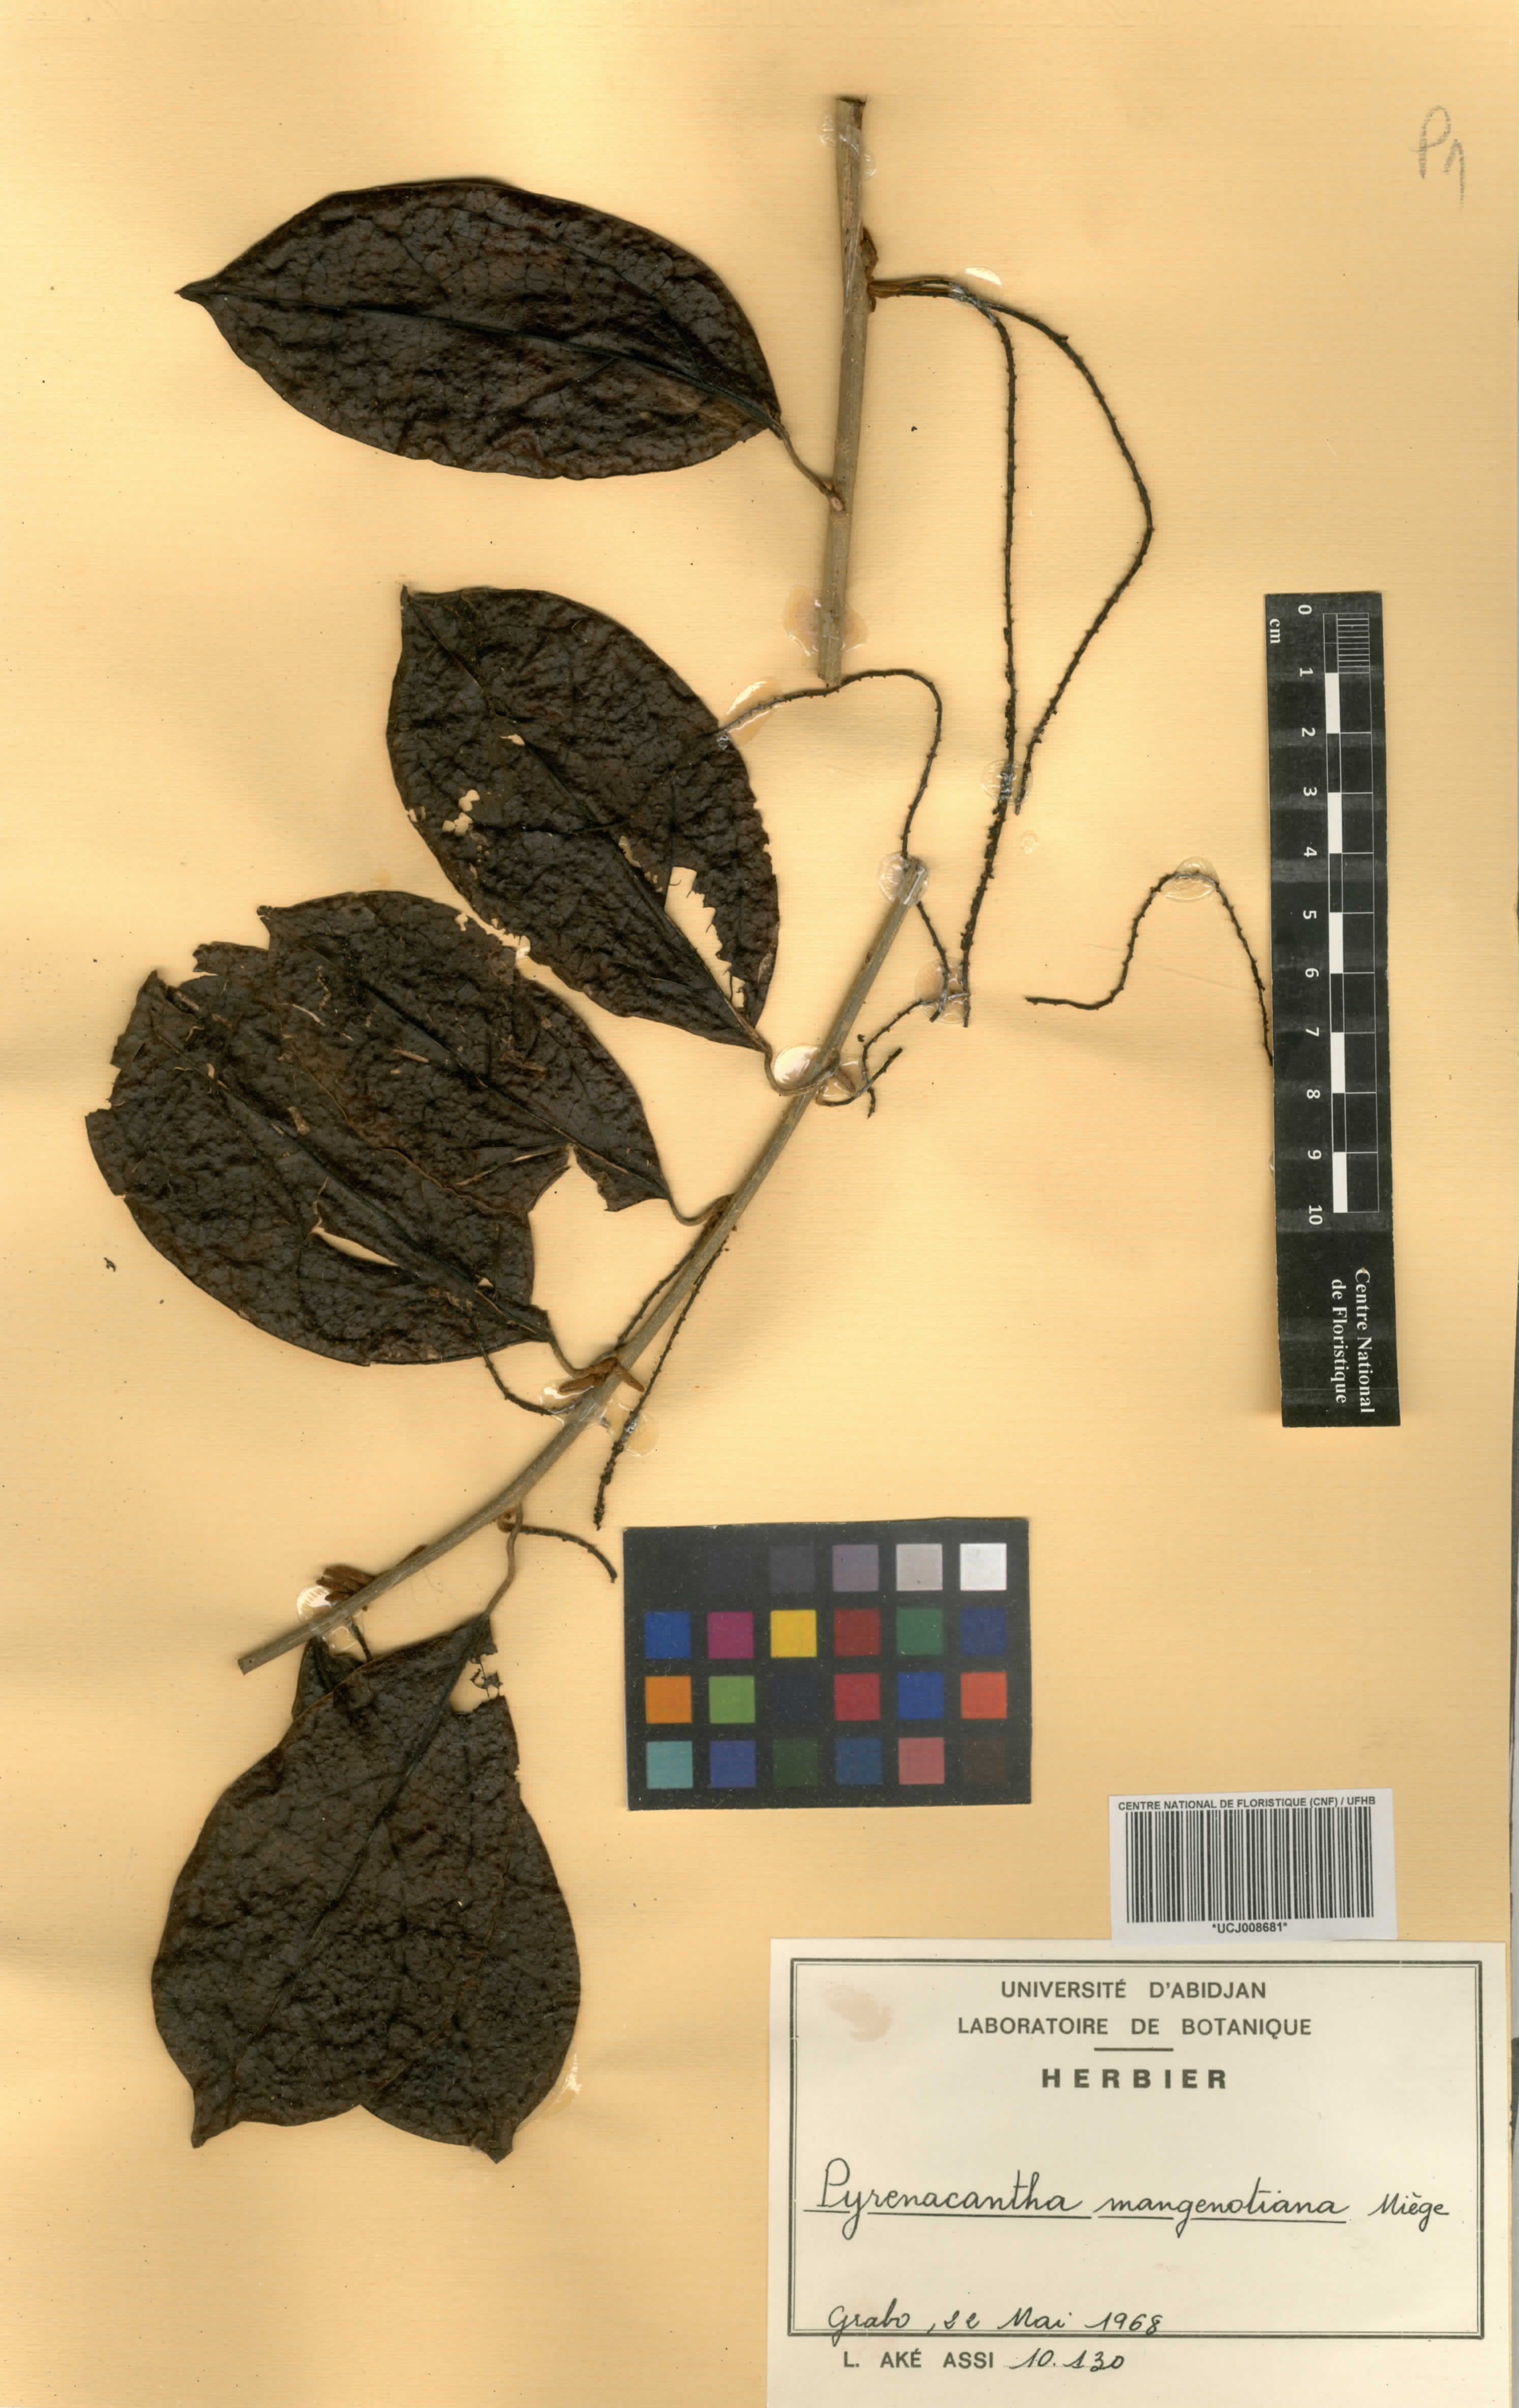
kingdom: Plantae
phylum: Tracheophyta
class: Magnoliopsida
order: Icacinales
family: Icacinaceae
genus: Pyrenacantha
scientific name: Pyrenacantha glabrescens
